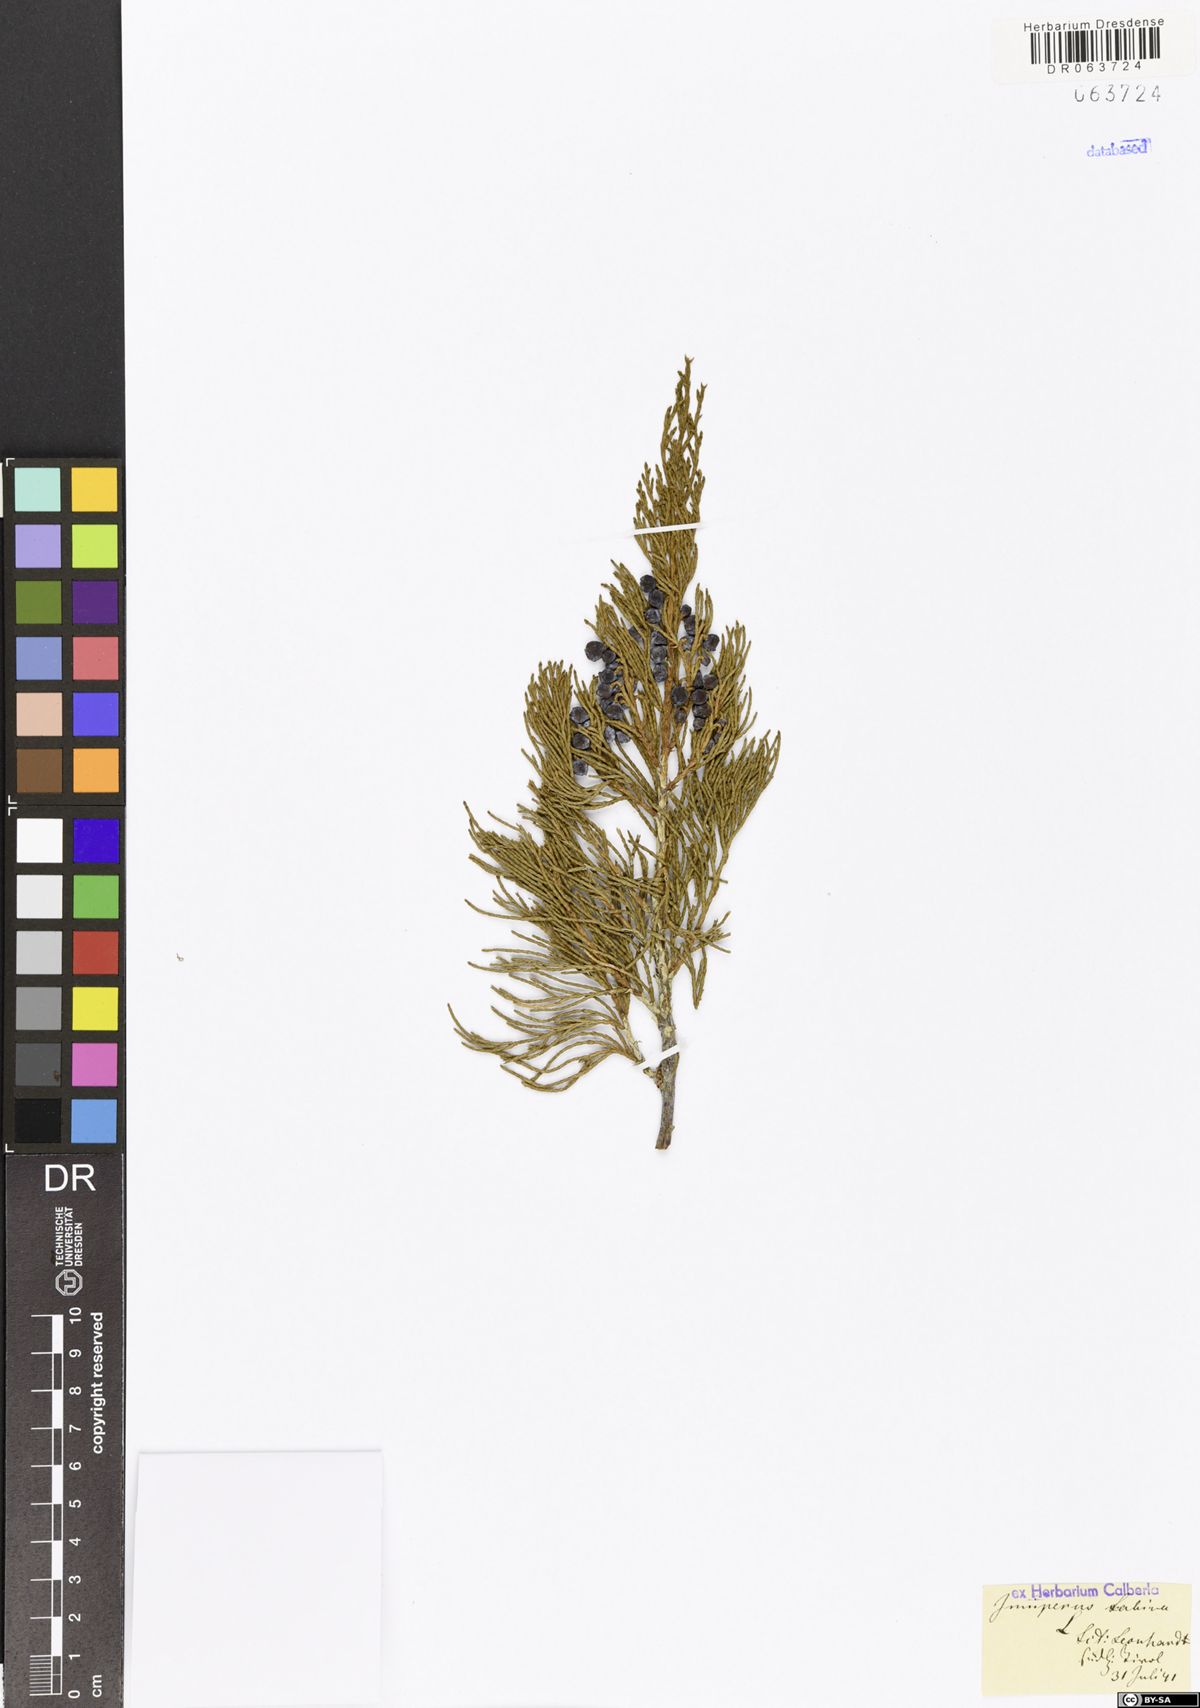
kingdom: Plantae
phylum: Tracheophyta
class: Pinopsida
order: Pinales
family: Cupressaceae
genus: Juniperus
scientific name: Juniperus sabina
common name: Savin
